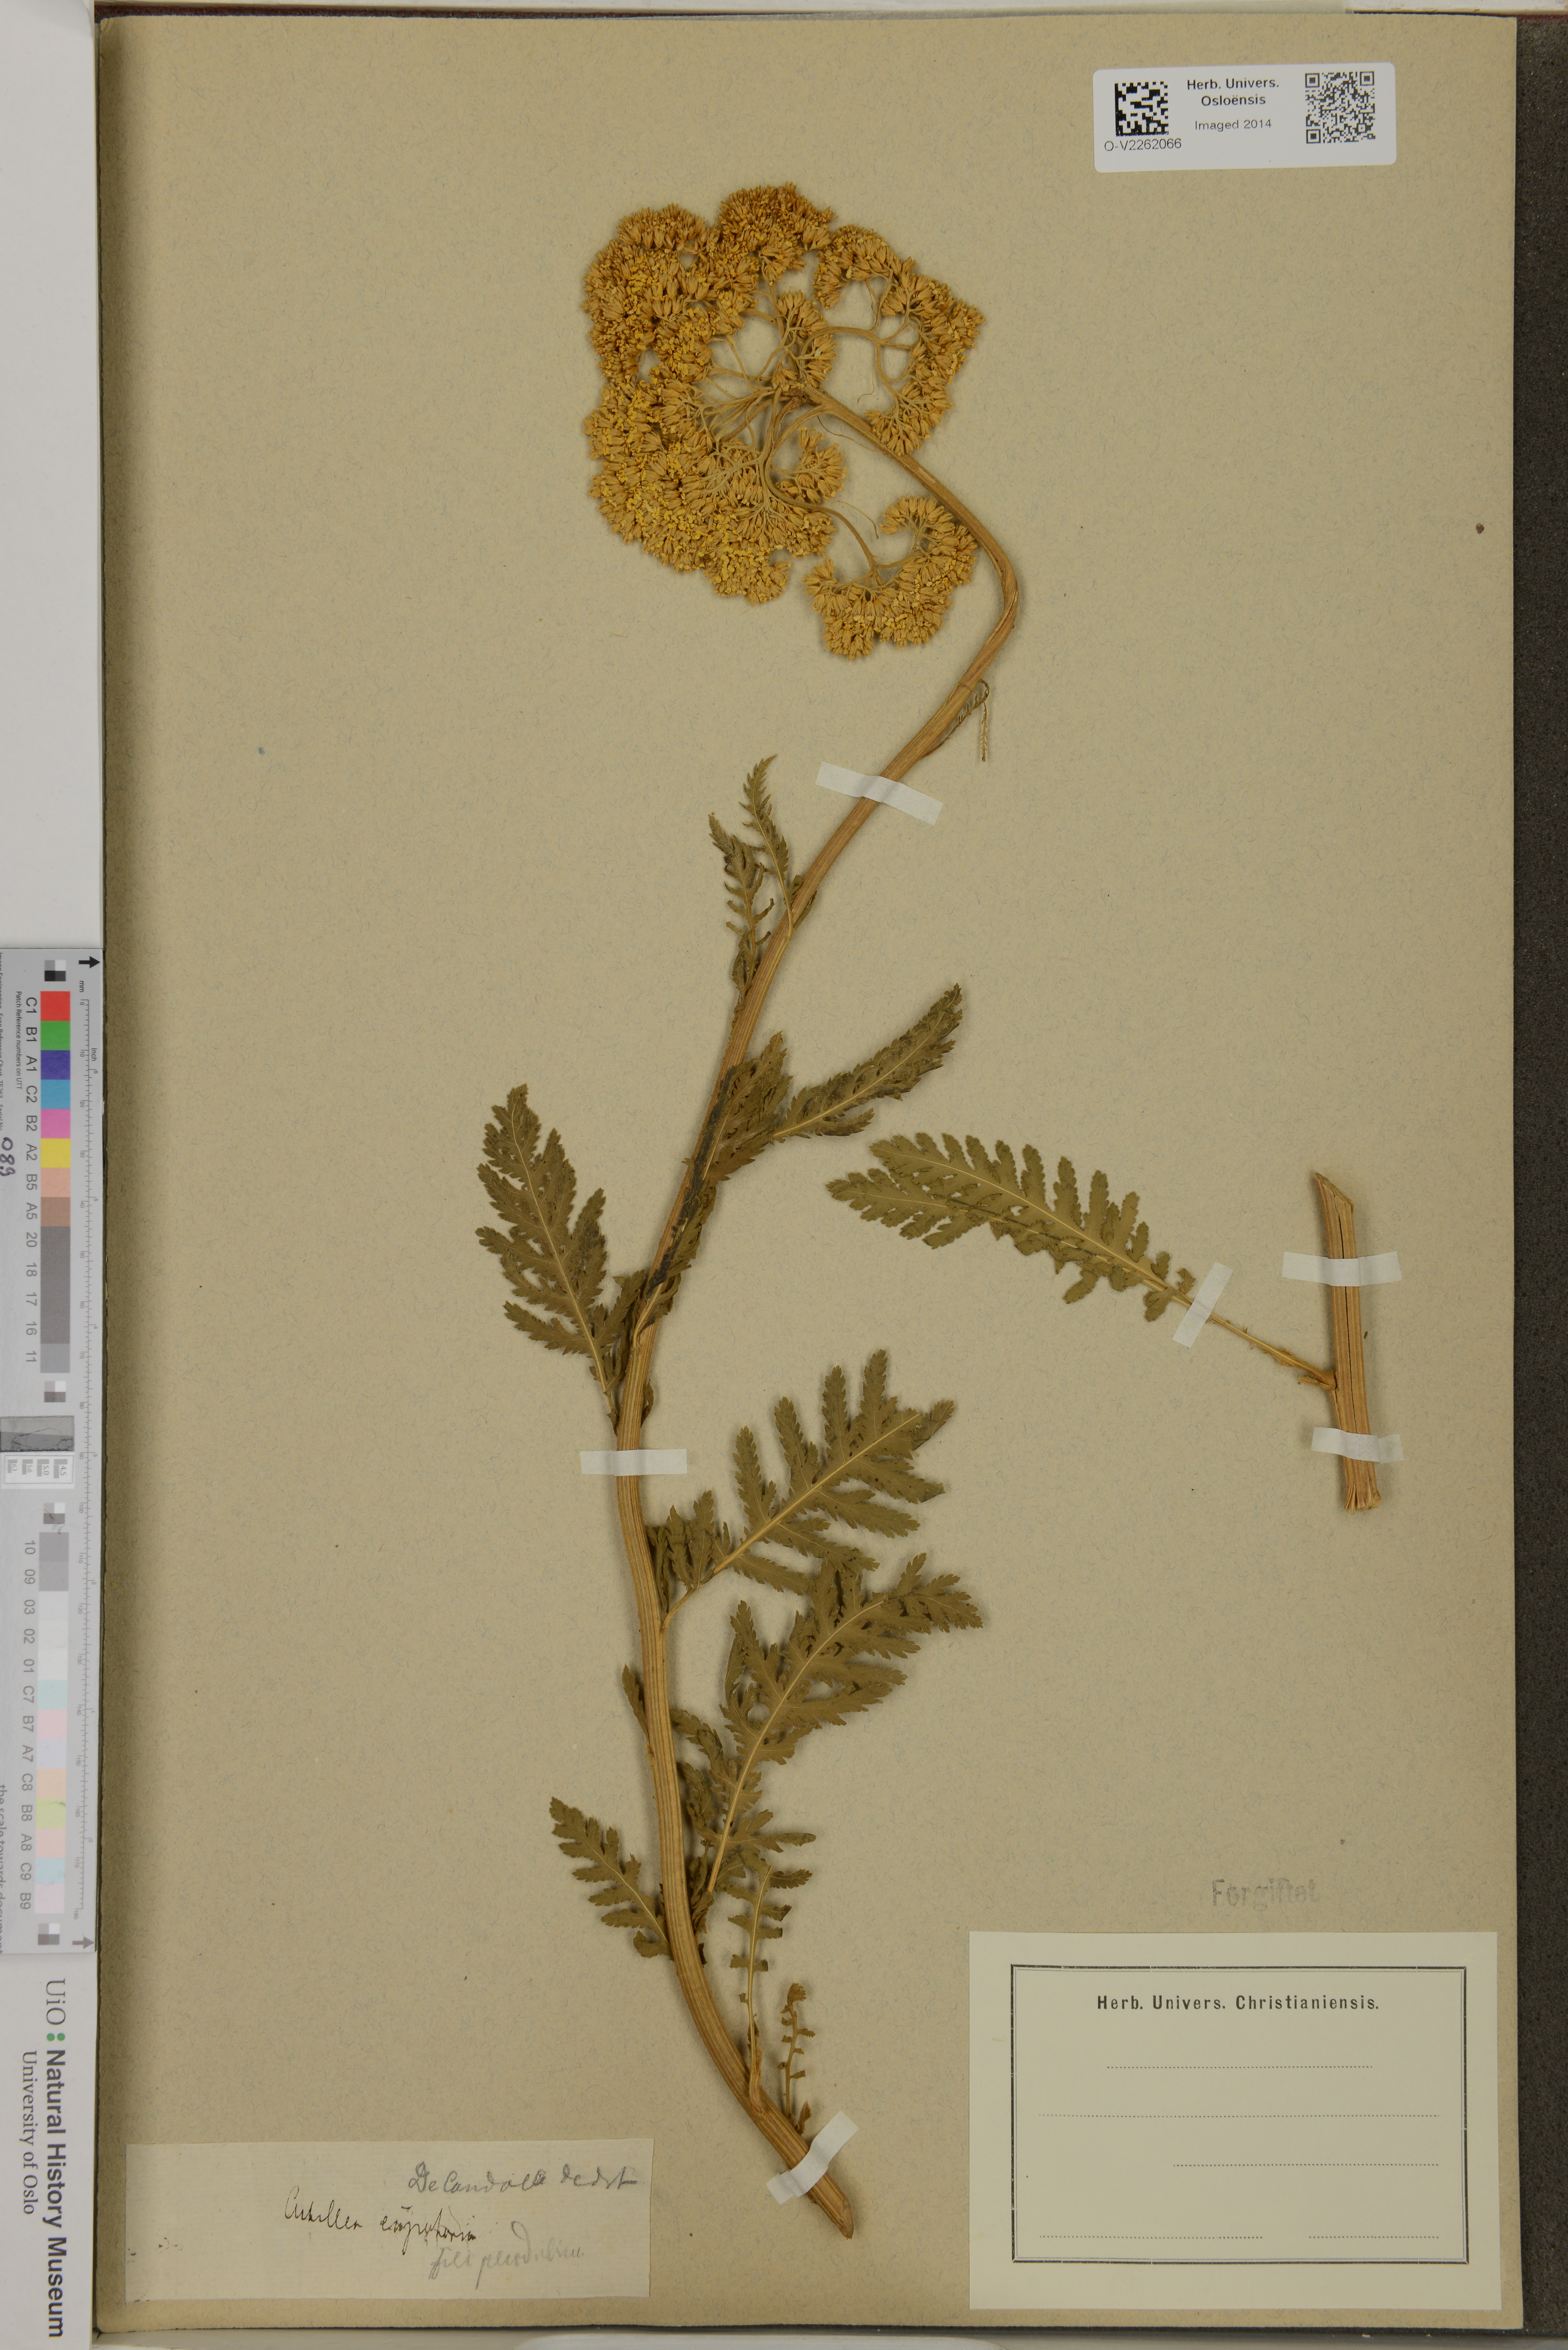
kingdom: Plantae
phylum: Tracheophyta
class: Magnoliopsida
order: Asterales
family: Asteraceae
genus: Achillea
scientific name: Achillea filipendulina
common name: Fernleaf yarrow
